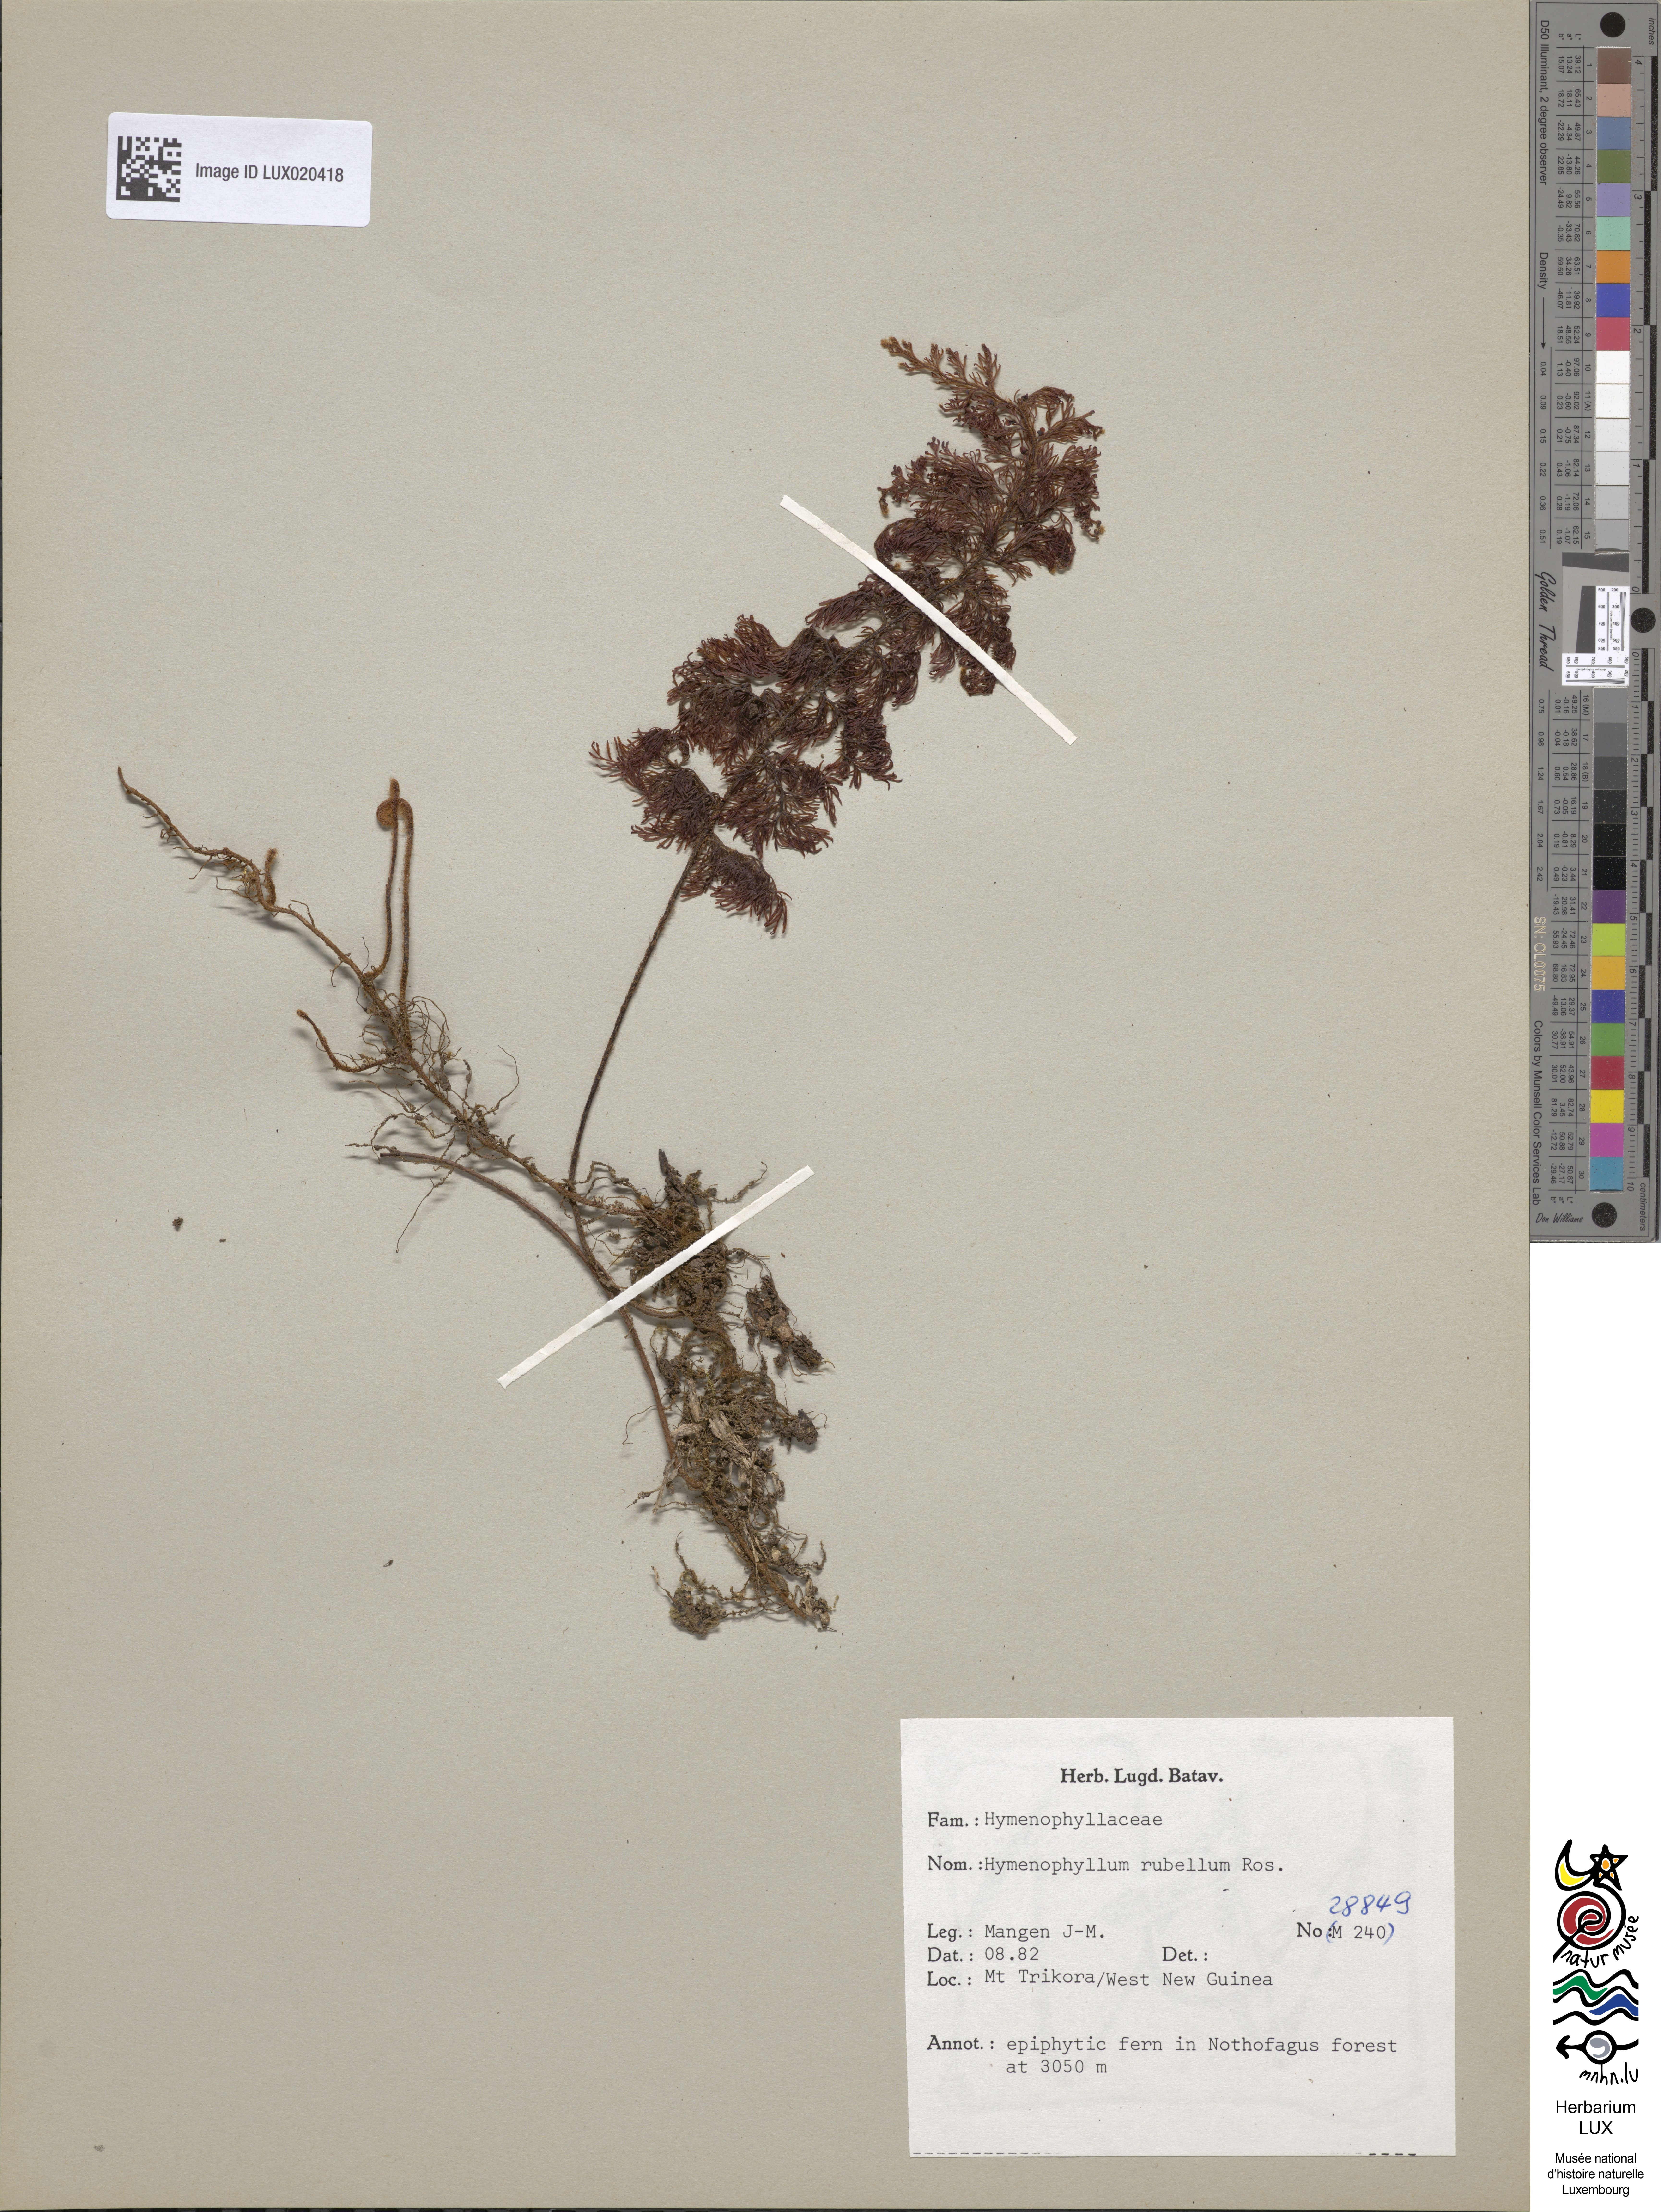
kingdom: Plantae
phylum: Tracheophyta
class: Polypodiopsida
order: Hymenophyllales
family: Hymenophyllaceae
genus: Hymenophyllum
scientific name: Hymenophyllum rubellum
